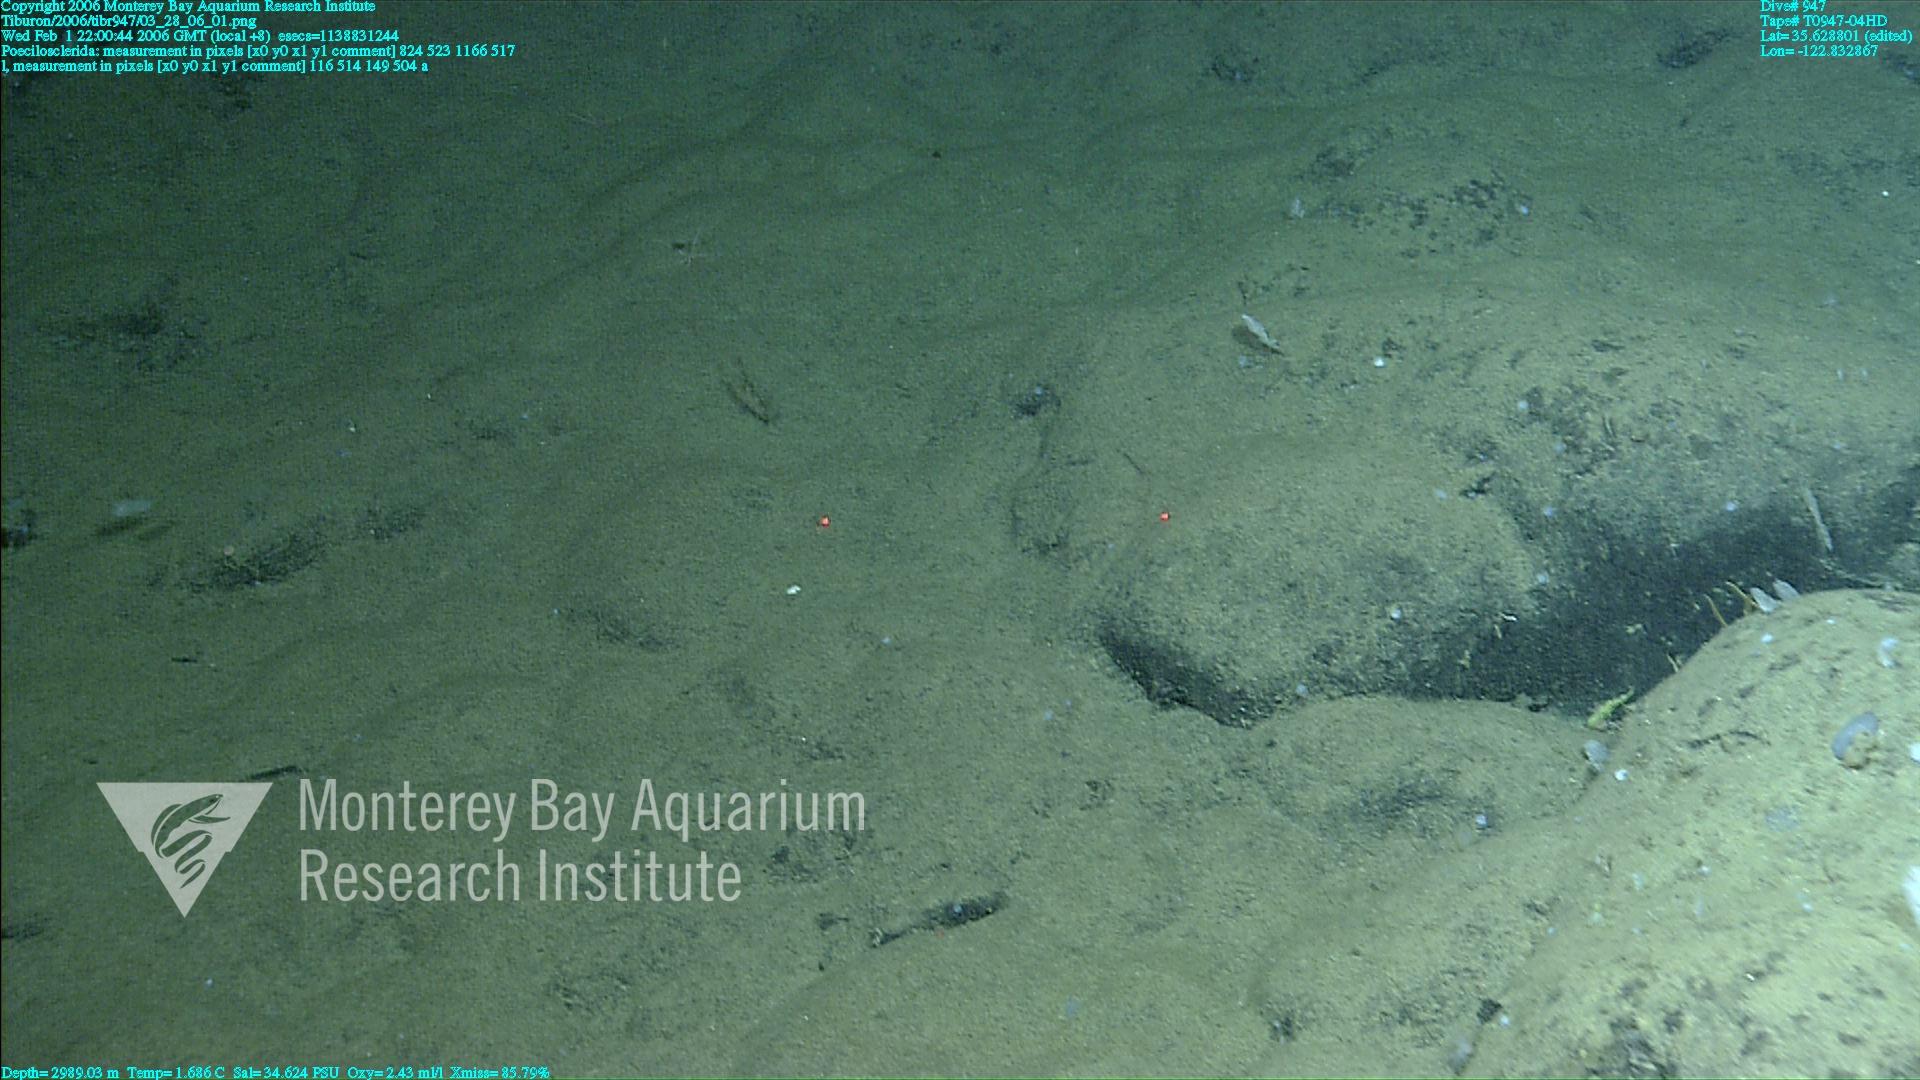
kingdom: Animalia
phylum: Porifera
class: Demospongiae
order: Poecilosclerida
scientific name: Poecilosclerida
